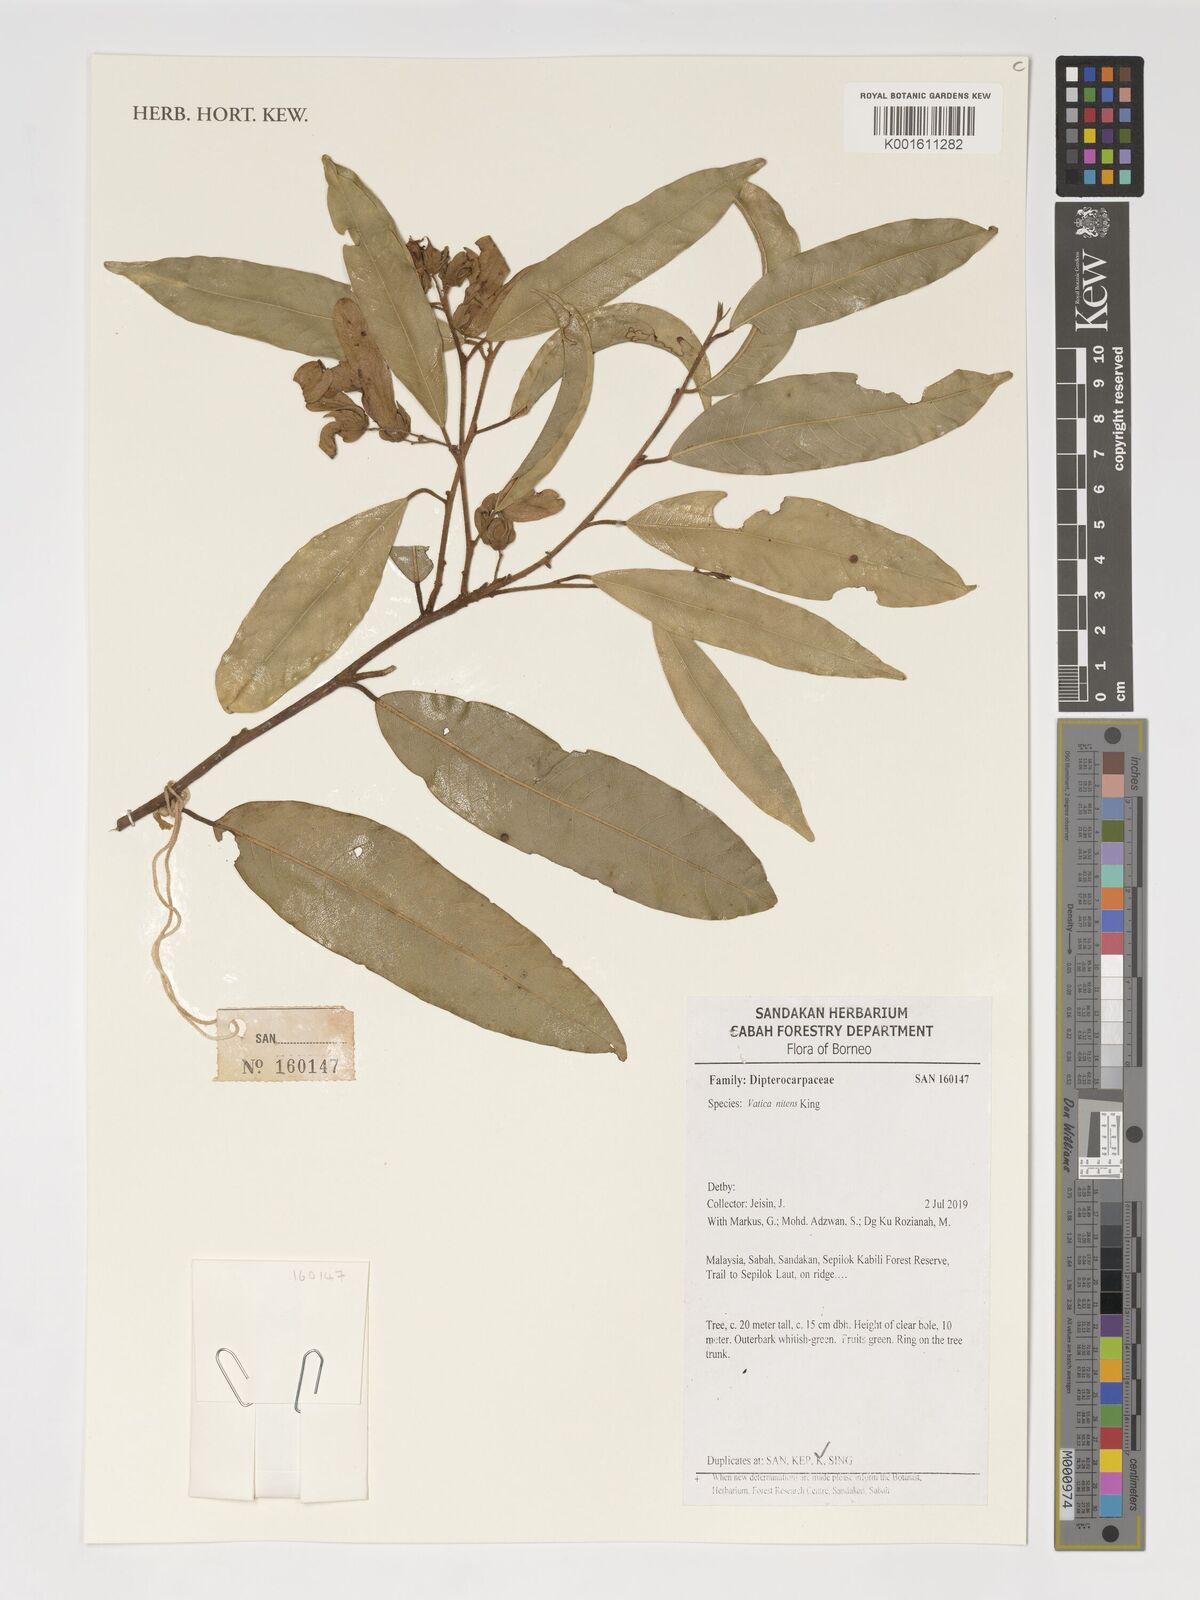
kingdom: Plantae
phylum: Tracheophyta
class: Magnoliopsida
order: Malvales
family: Dipterocarpaceae
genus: Vatica
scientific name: Vatica nitens
